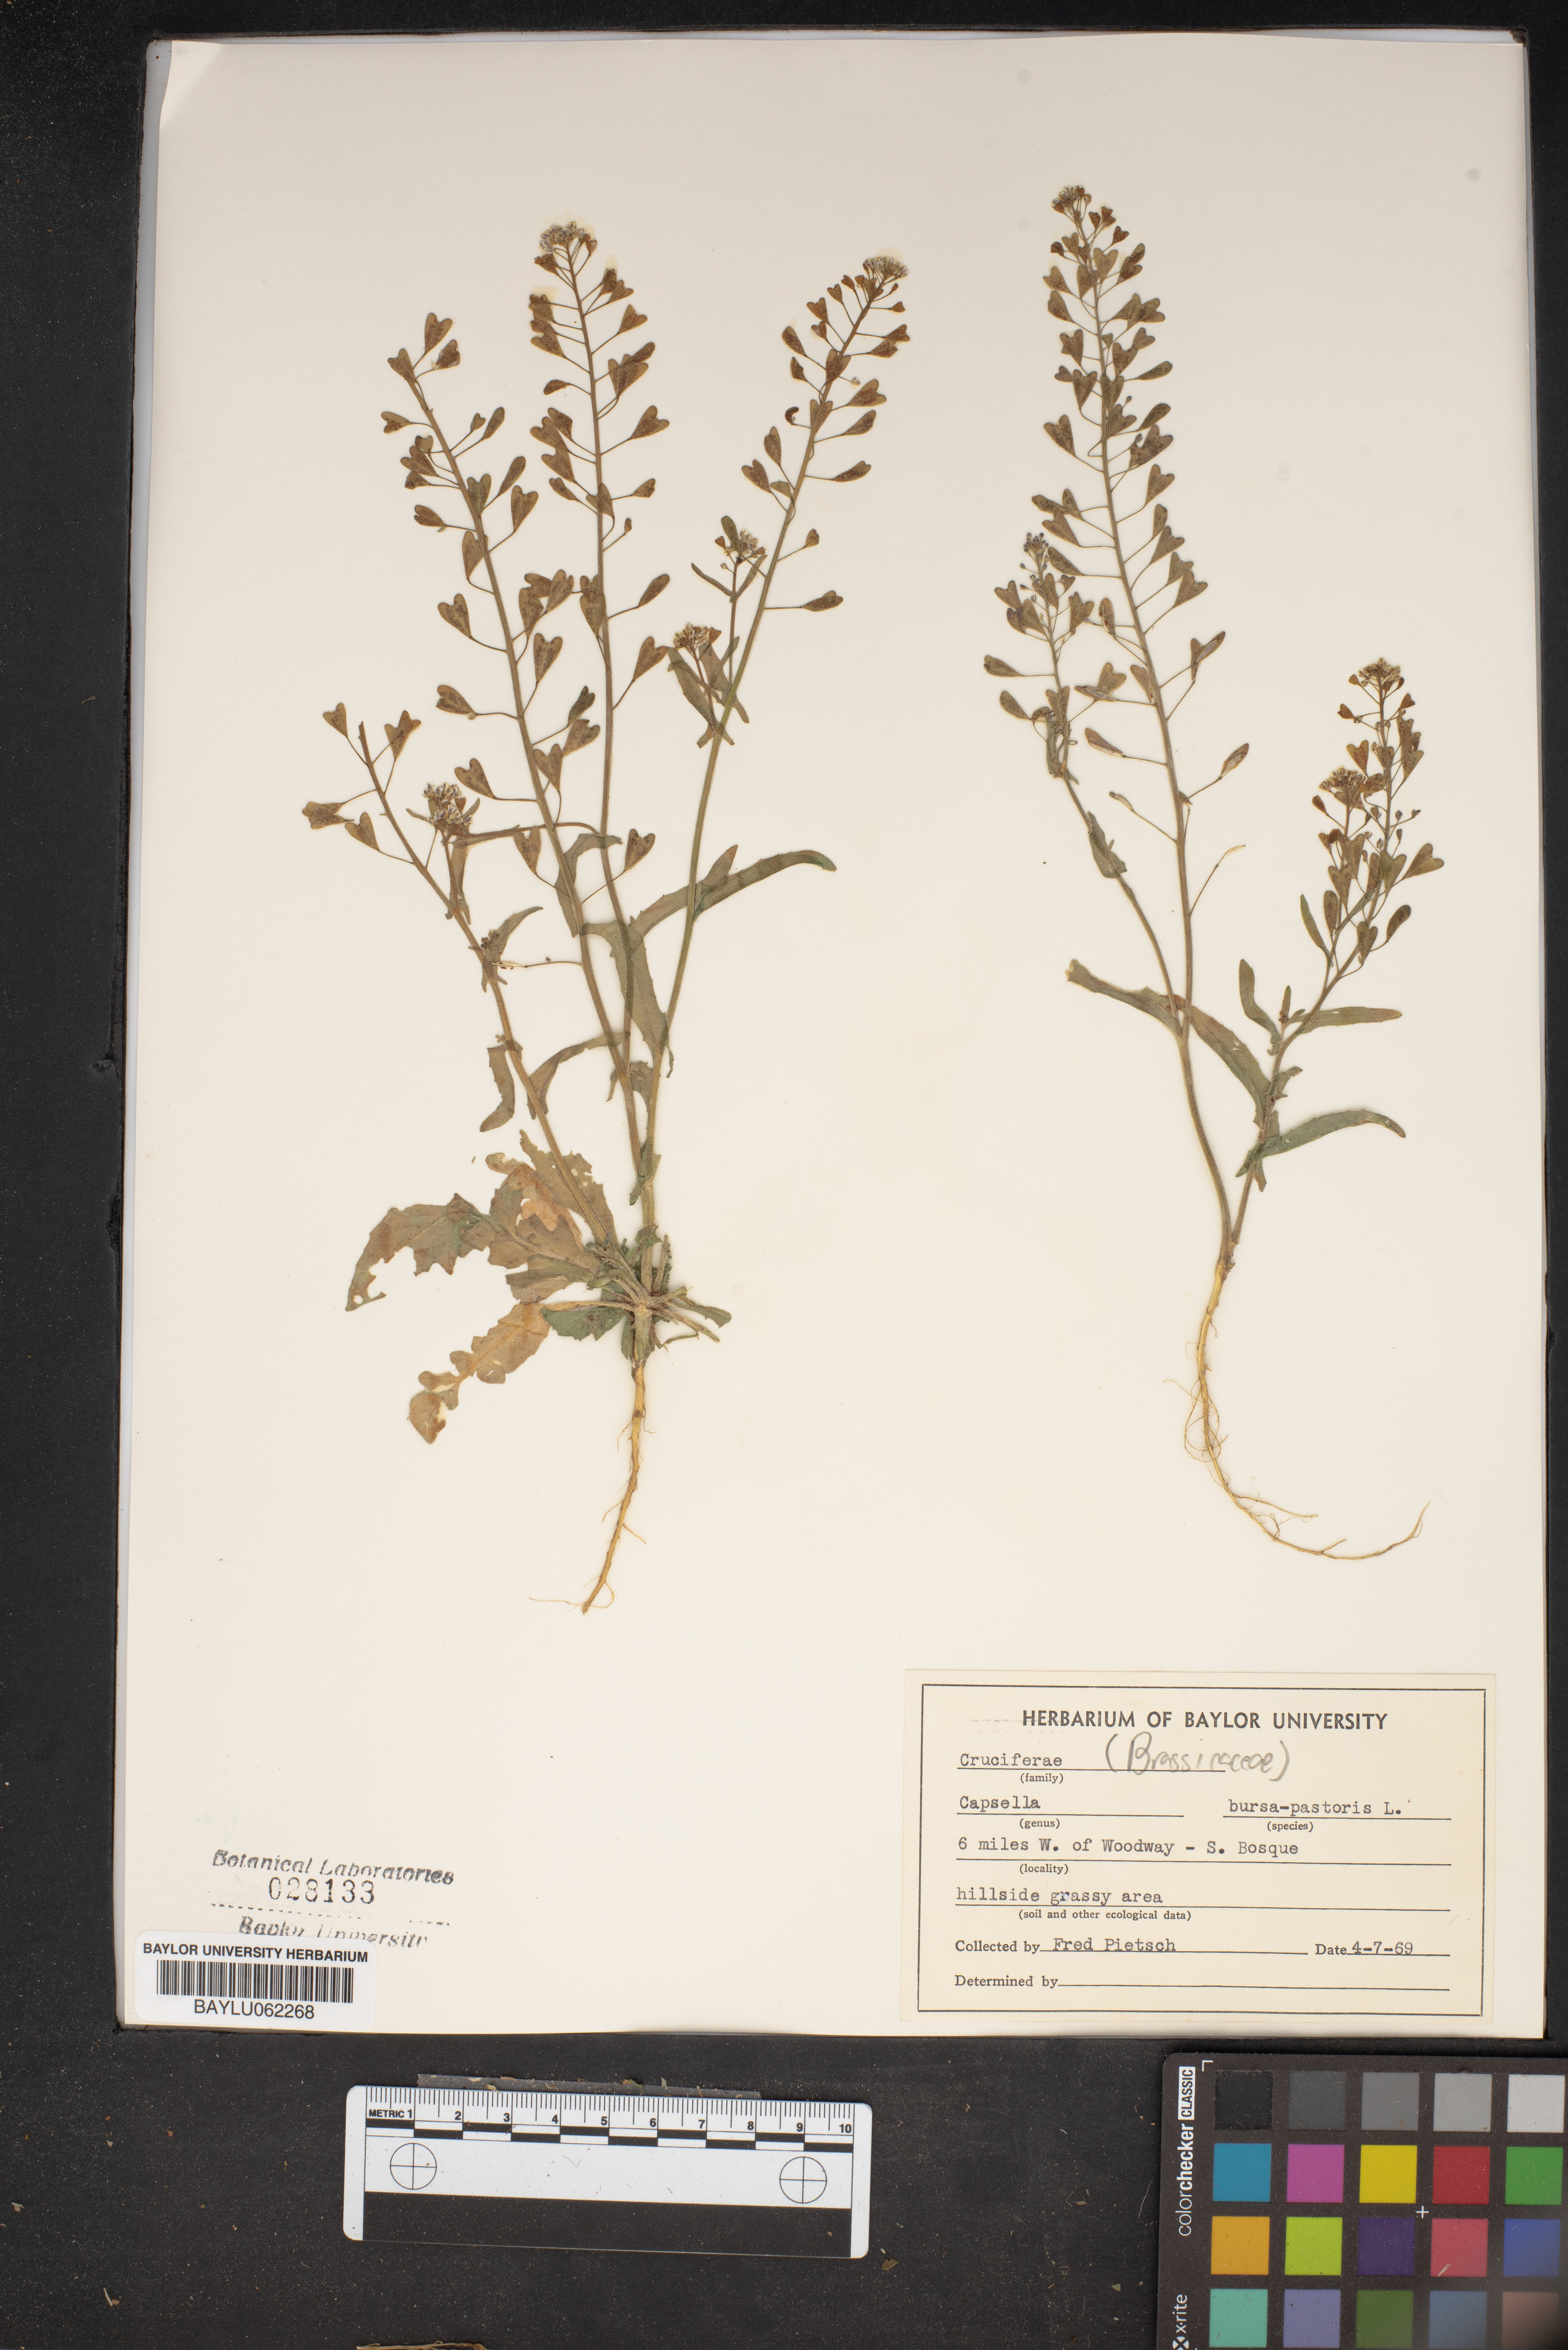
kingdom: Plantae
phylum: Tracheophyta
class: Magnoliopsida
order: Brassicales
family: Brassicaceae
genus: Capsella
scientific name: Capsella bursa-pastoris
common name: Shepherd's purse
